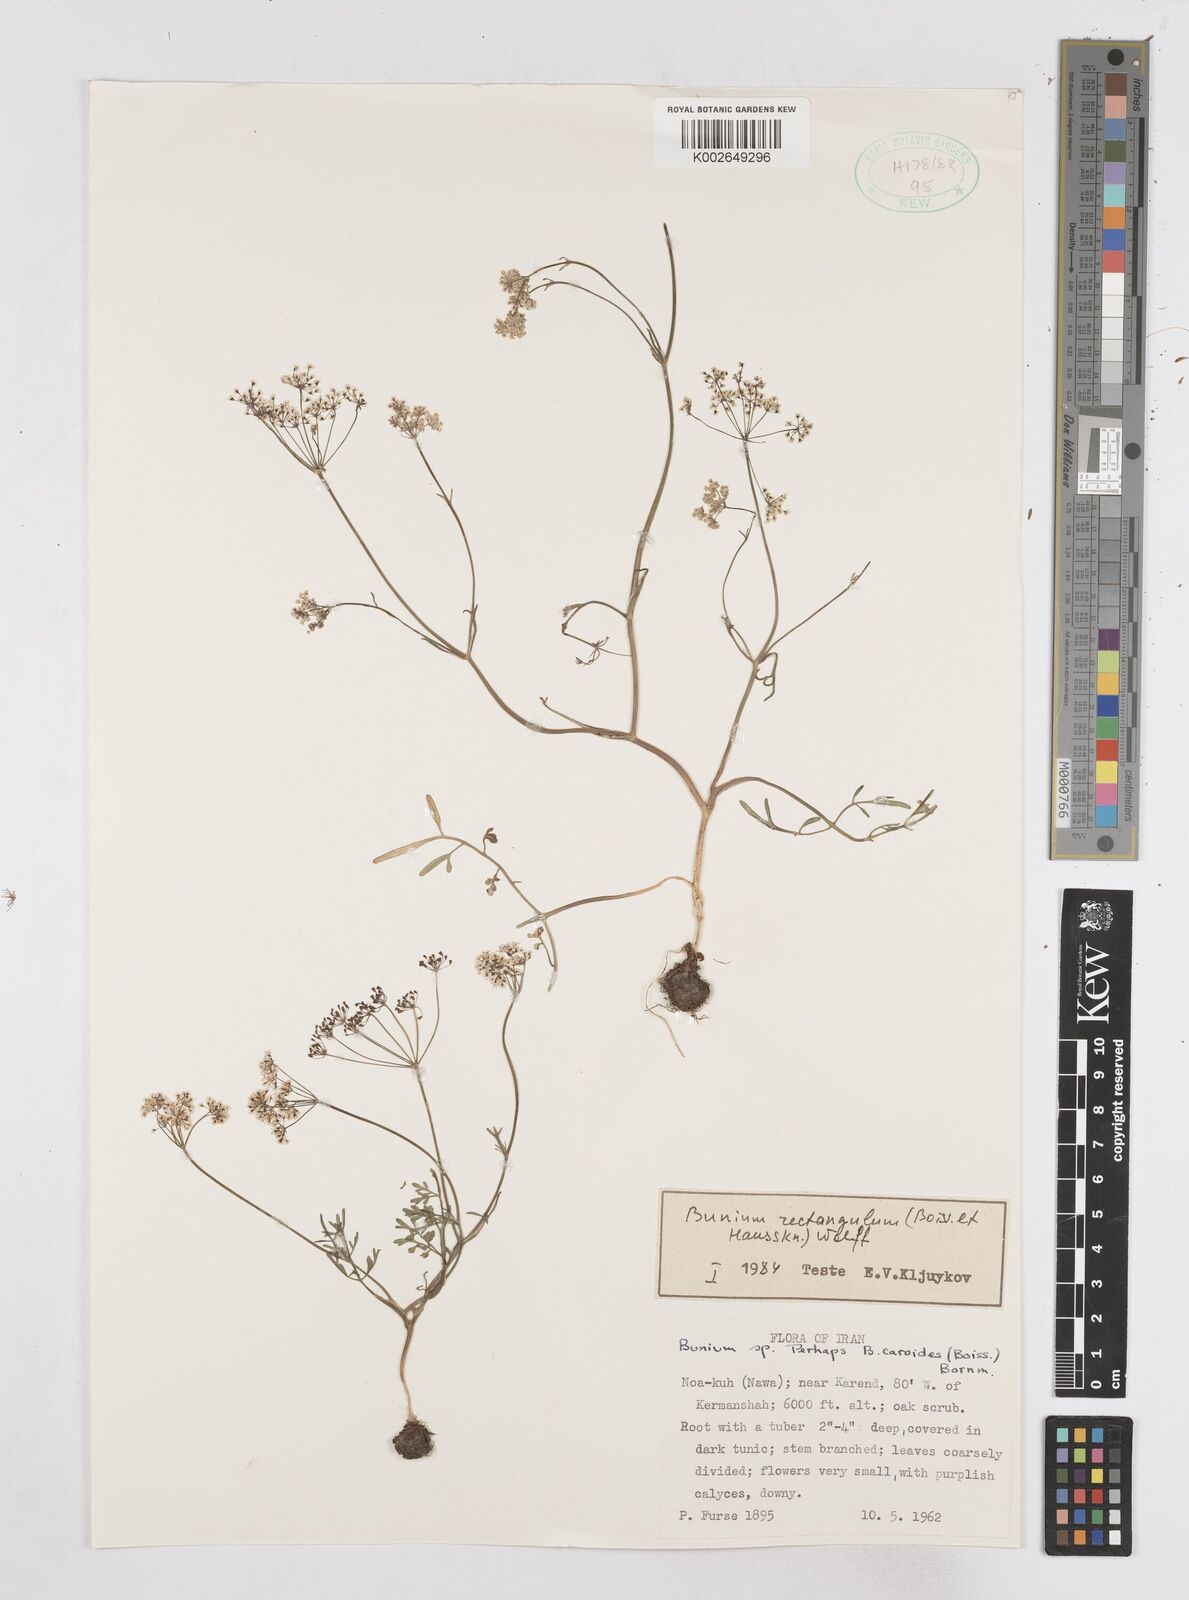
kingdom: Plantae
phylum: Tracheophyta
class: Magnoliopsida
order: Apiales
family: Apiaceae
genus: Bunium
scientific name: Bunium rectangulum
